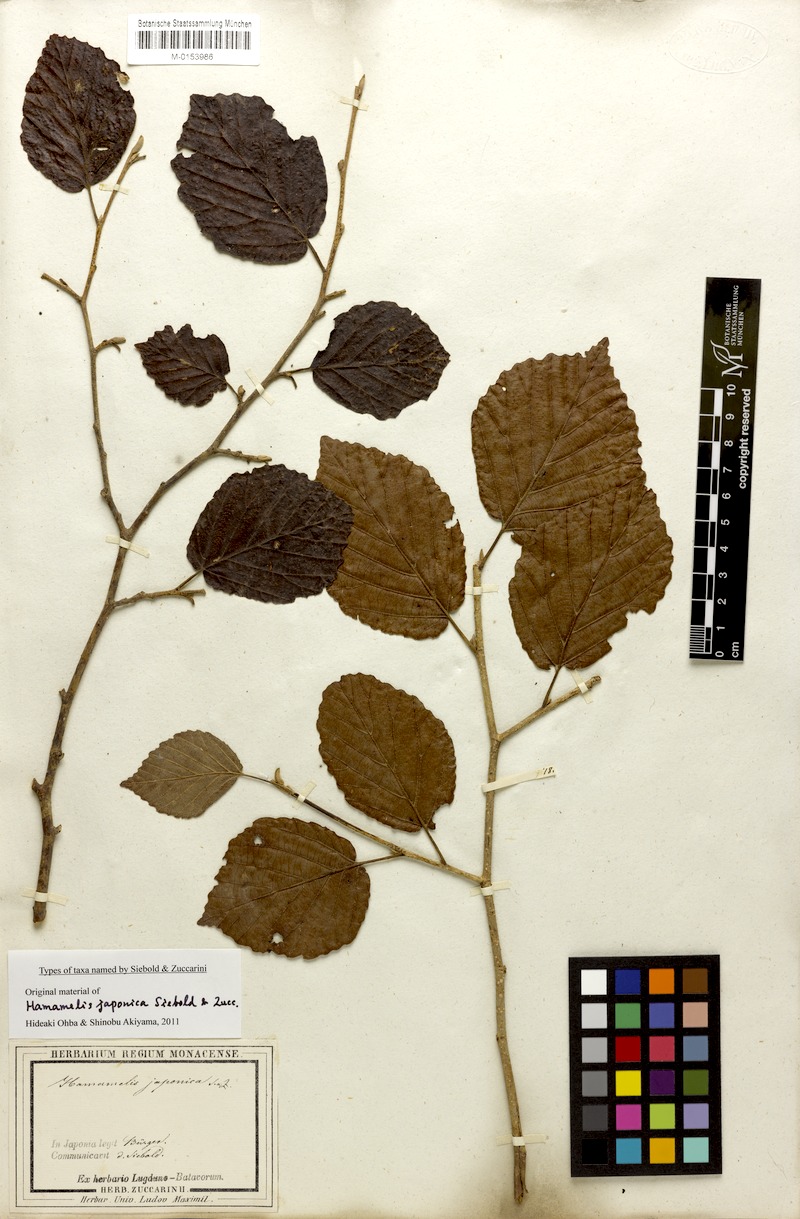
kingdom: Plantae
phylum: Tracheophyta
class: Magnoliopsida
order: Saxifragales
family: Hamamelidaceae
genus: Hamamelis
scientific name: Hamamelis japonica
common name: Japanese witch-hazel
